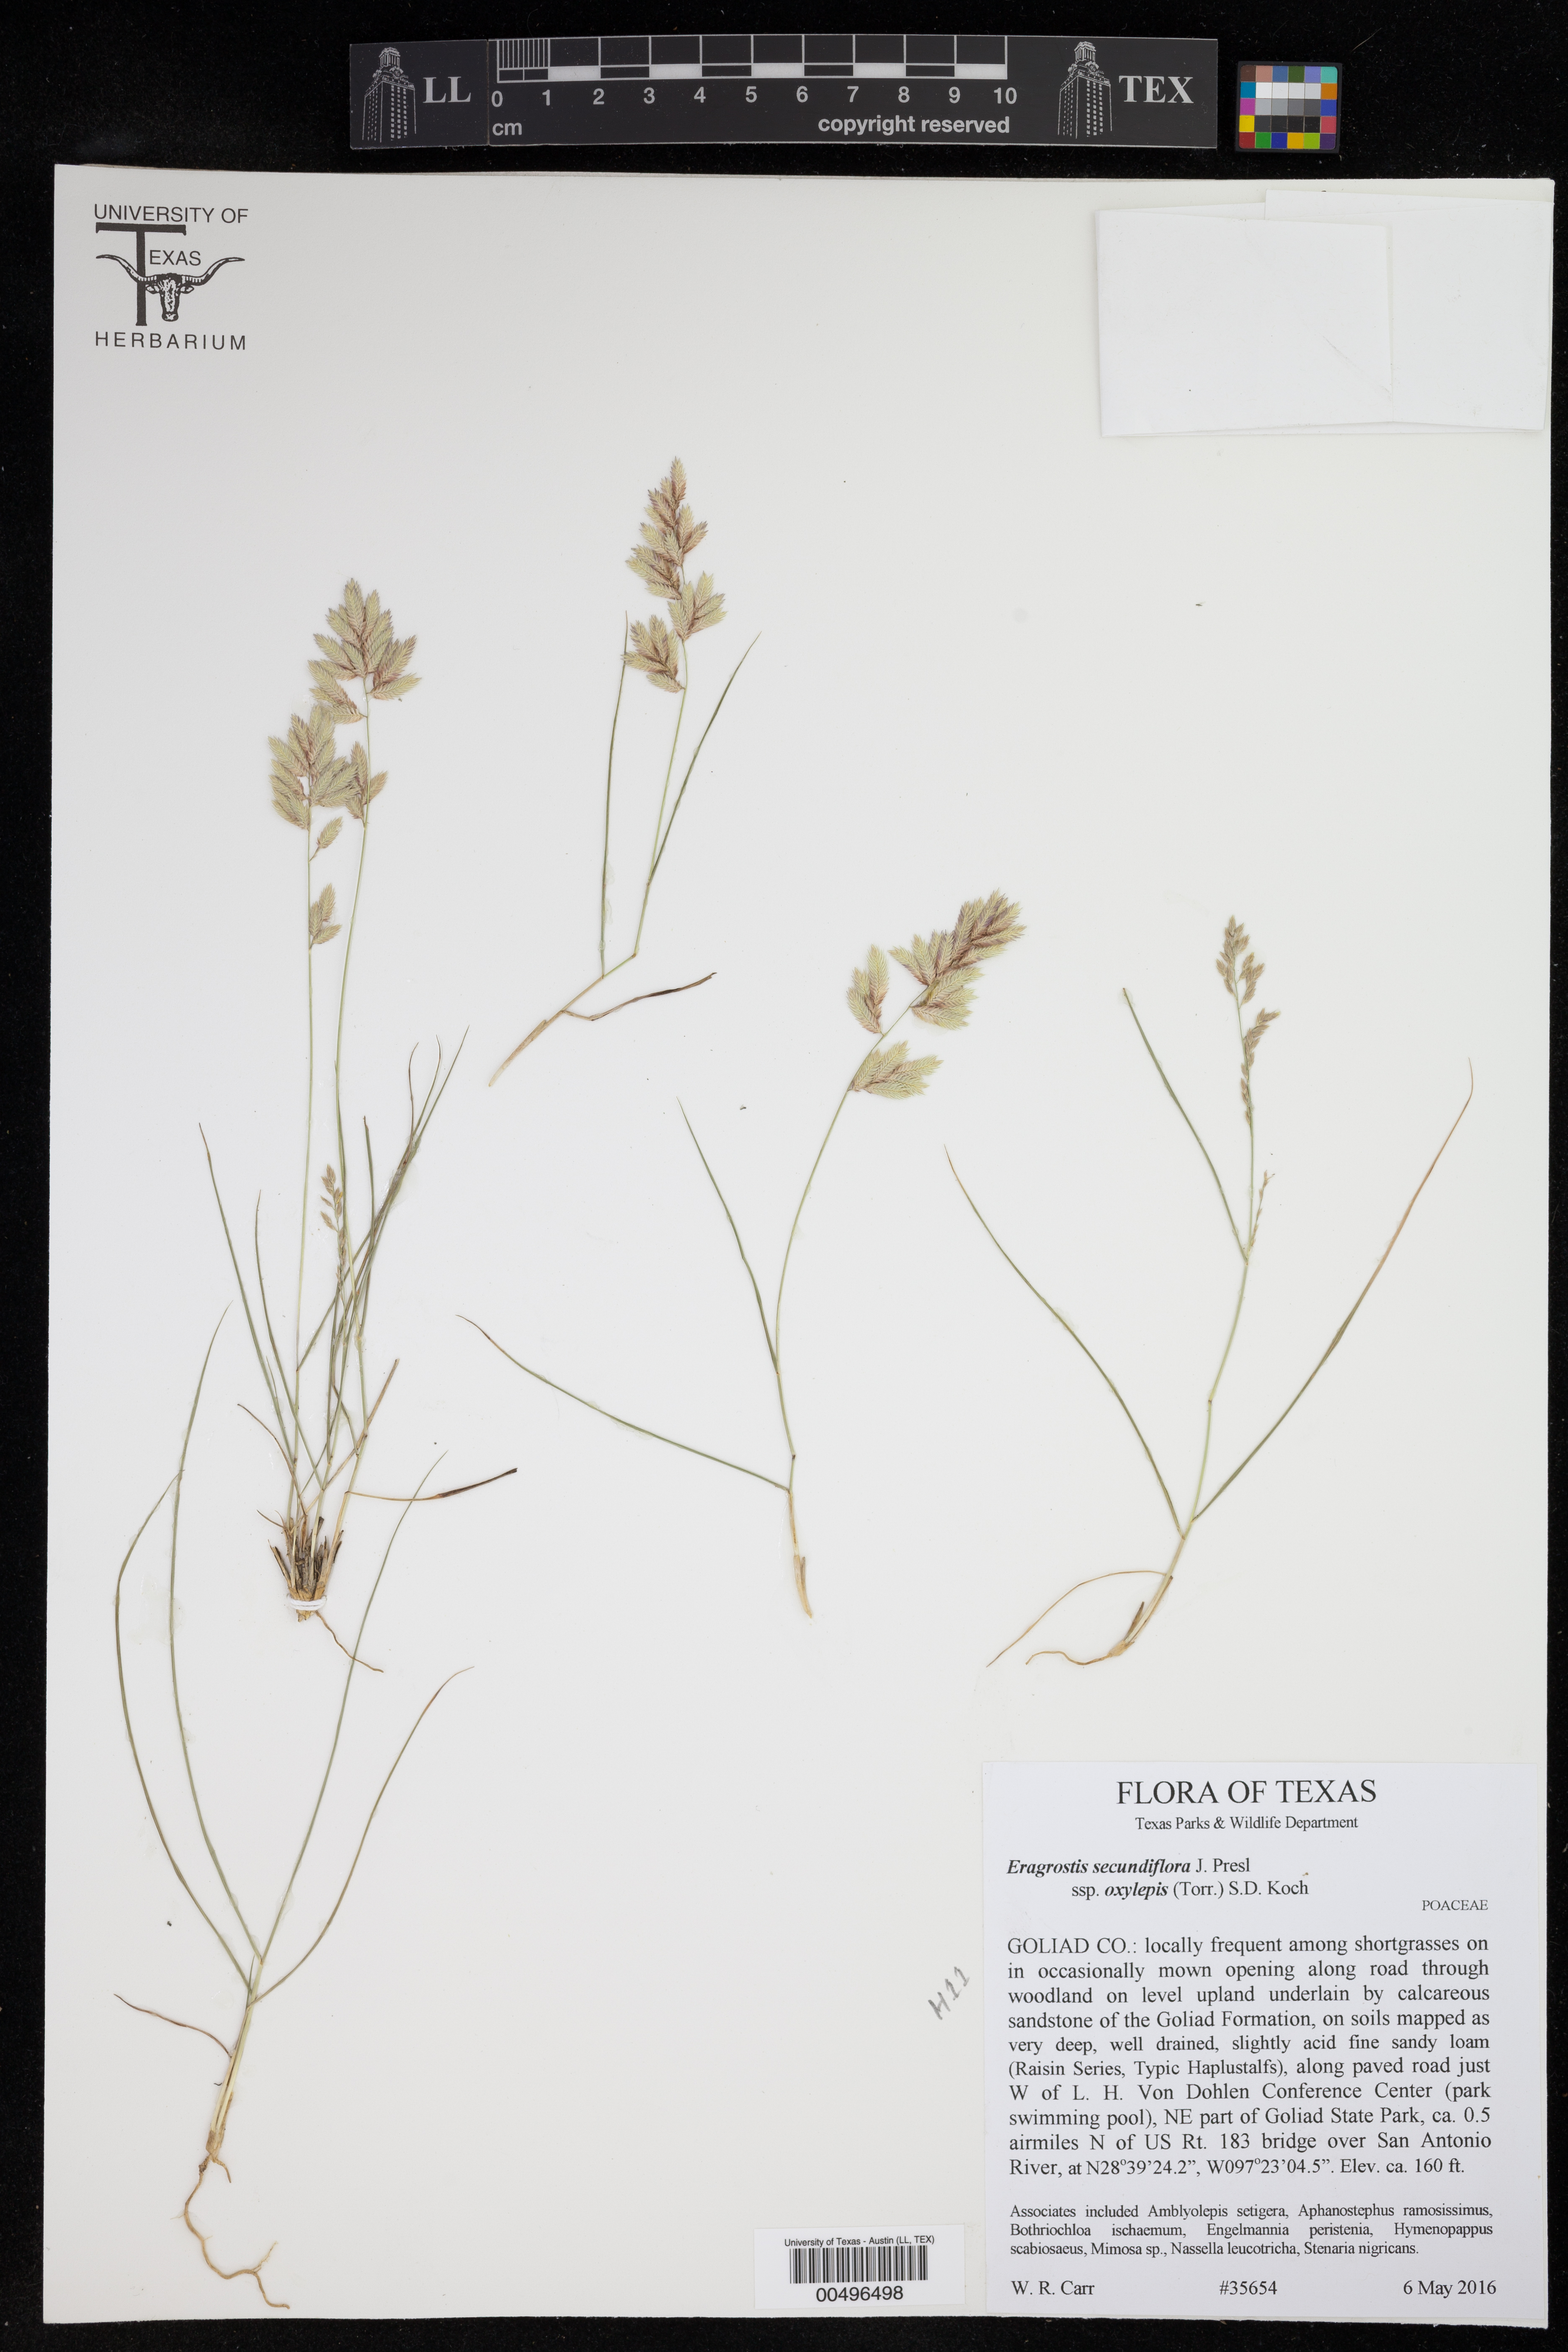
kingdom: Plantae
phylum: Tracheophyta
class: Liliopsida
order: Poales
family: Poaceae
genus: Eragrostis
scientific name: Eragrostis secundiflora
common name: Red love grass
